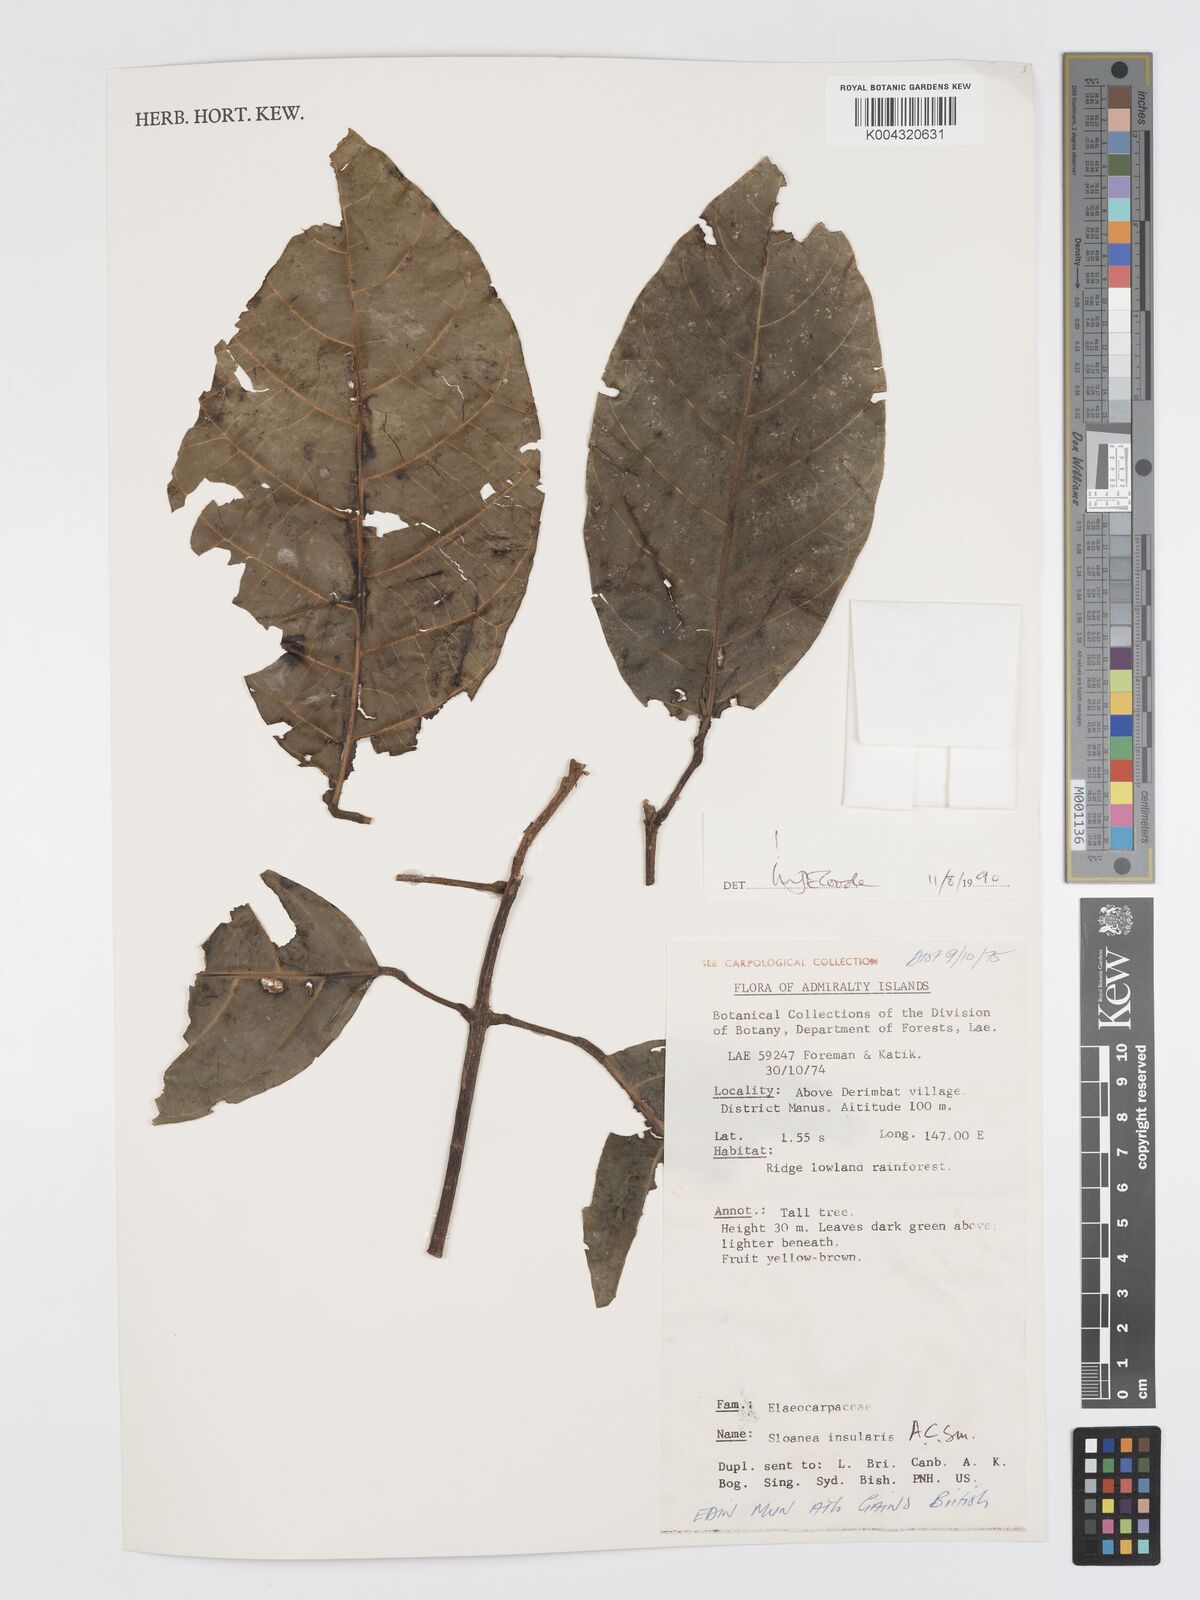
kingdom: Plantae
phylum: Tracheophyta
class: Magnoliopsida
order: Oxalidales
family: Elaeocarpaceae
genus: Sloanea
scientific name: Sloanea insularis
